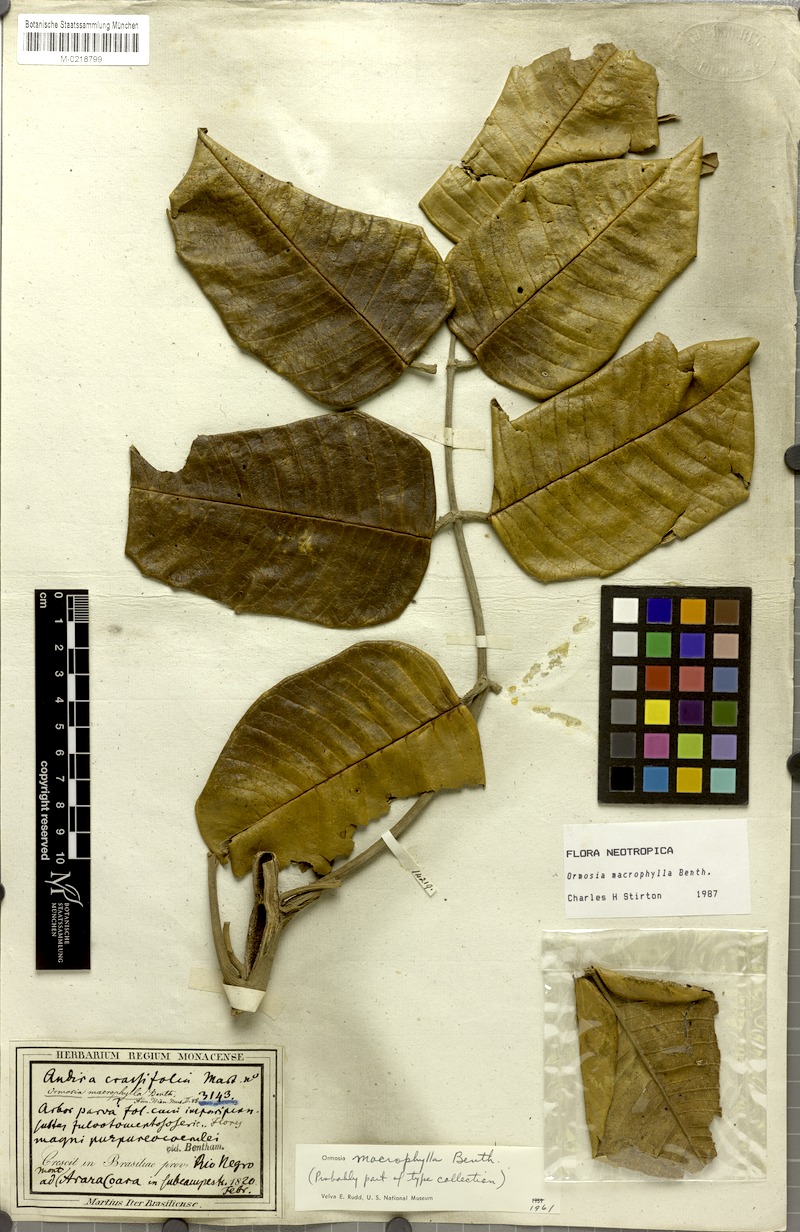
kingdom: Plantae
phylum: Tracheophyta
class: Magnoliopsida
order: Fabales
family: Fabaceae
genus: Ormosia
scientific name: Ormosia macrophylla
